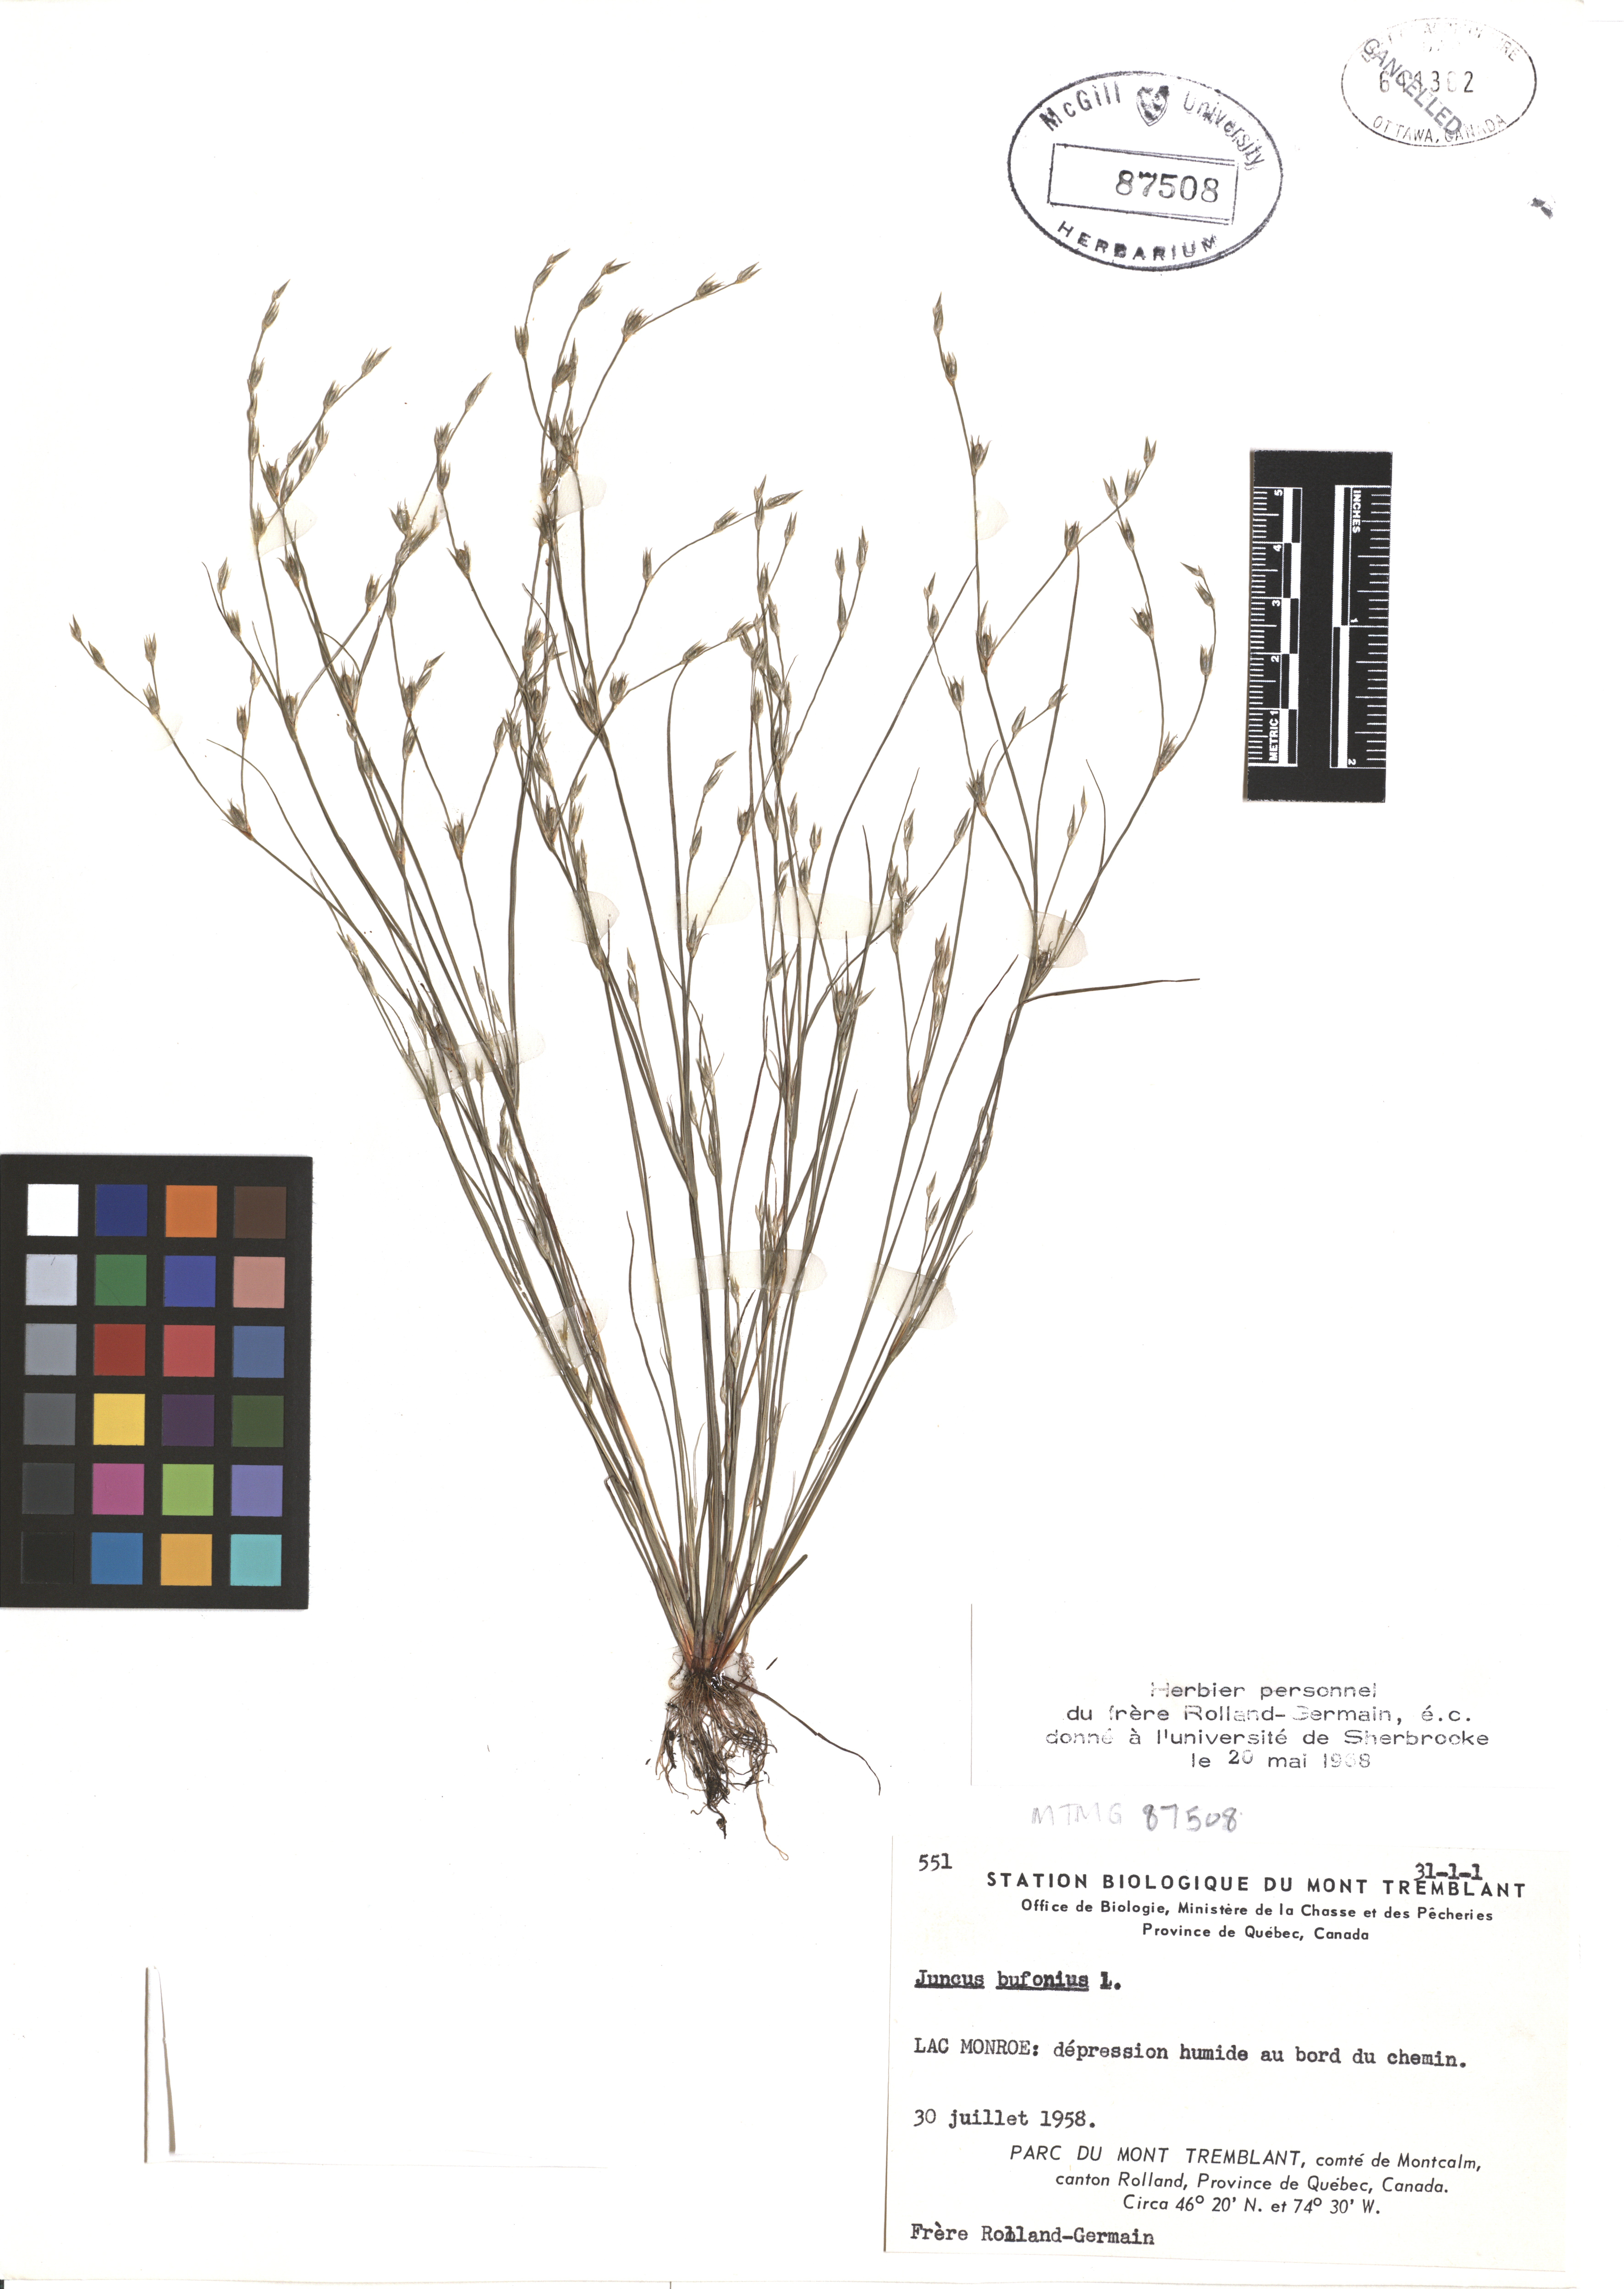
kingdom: Plantae
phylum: Tracheophyta
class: Liliopsida
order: Poales
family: Juncaceae
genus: Juncus
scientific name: Juncus bufonius
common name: Toad rush
